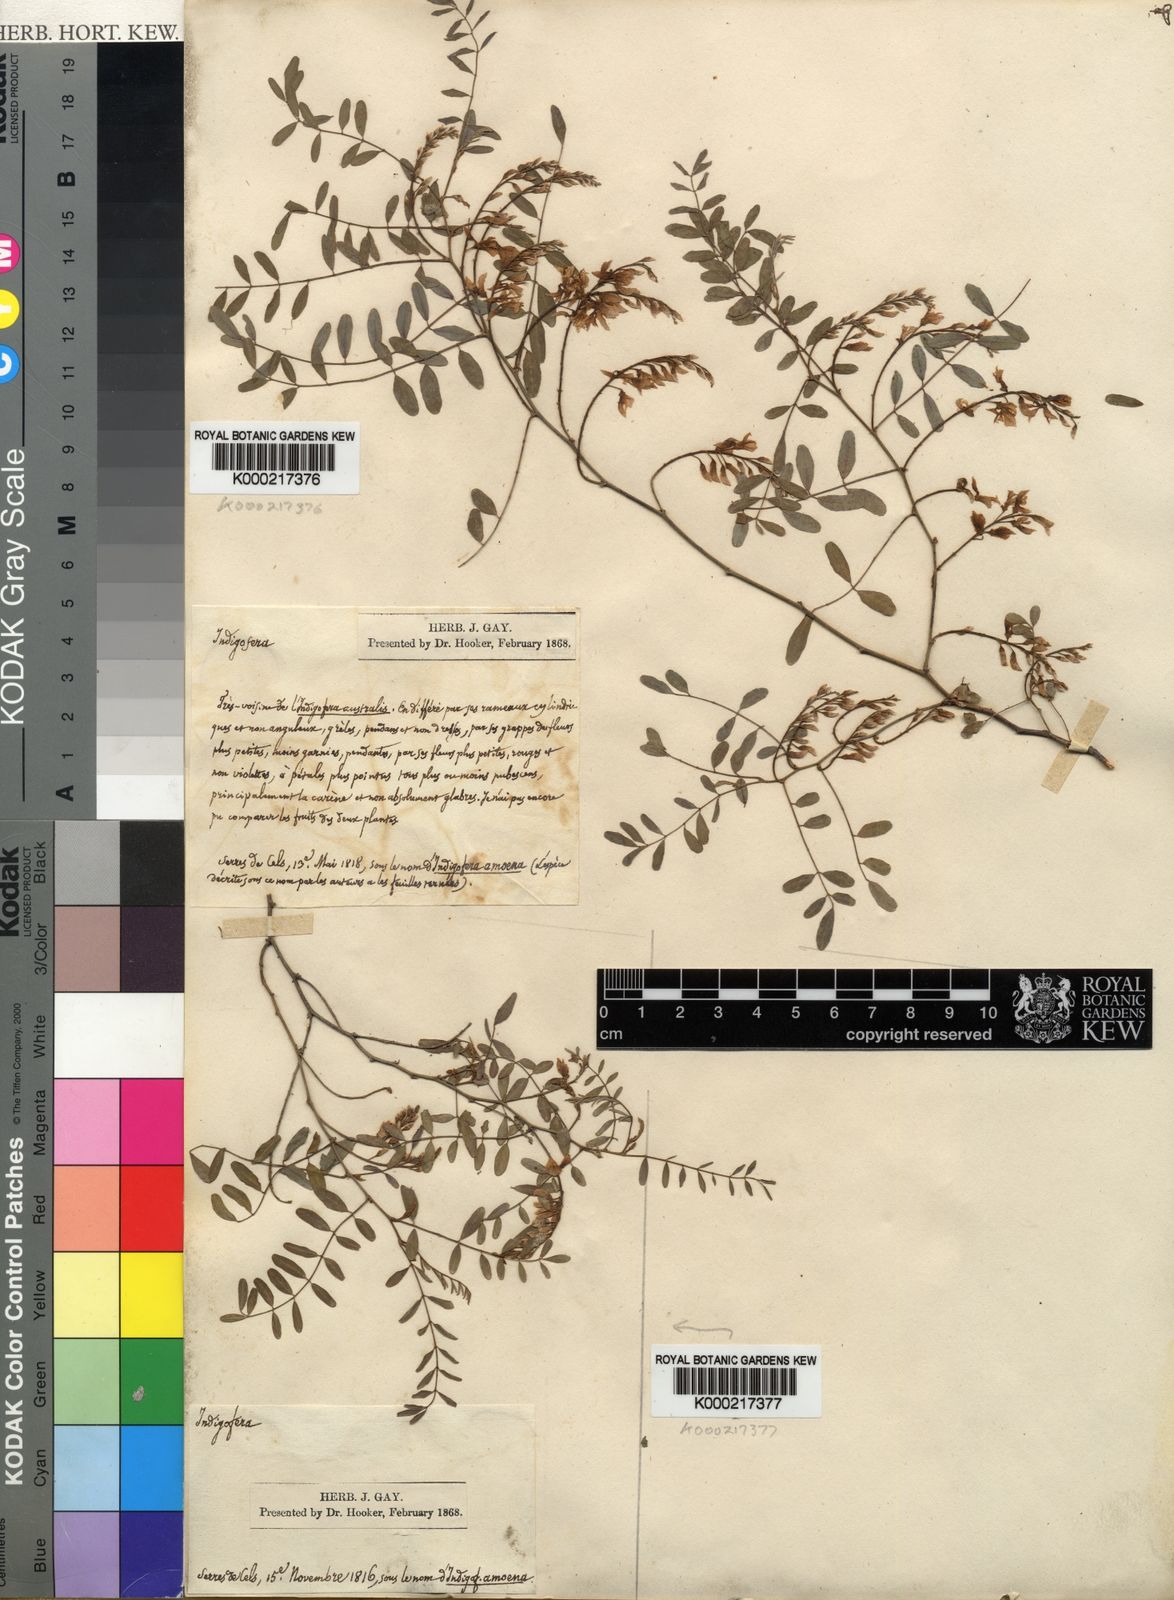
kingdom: Plantae
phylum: Tracheophyta
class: Magnoliopsida
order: Fabales
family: Fabaceae
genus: Indigofera
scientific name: Indigofera amoena
